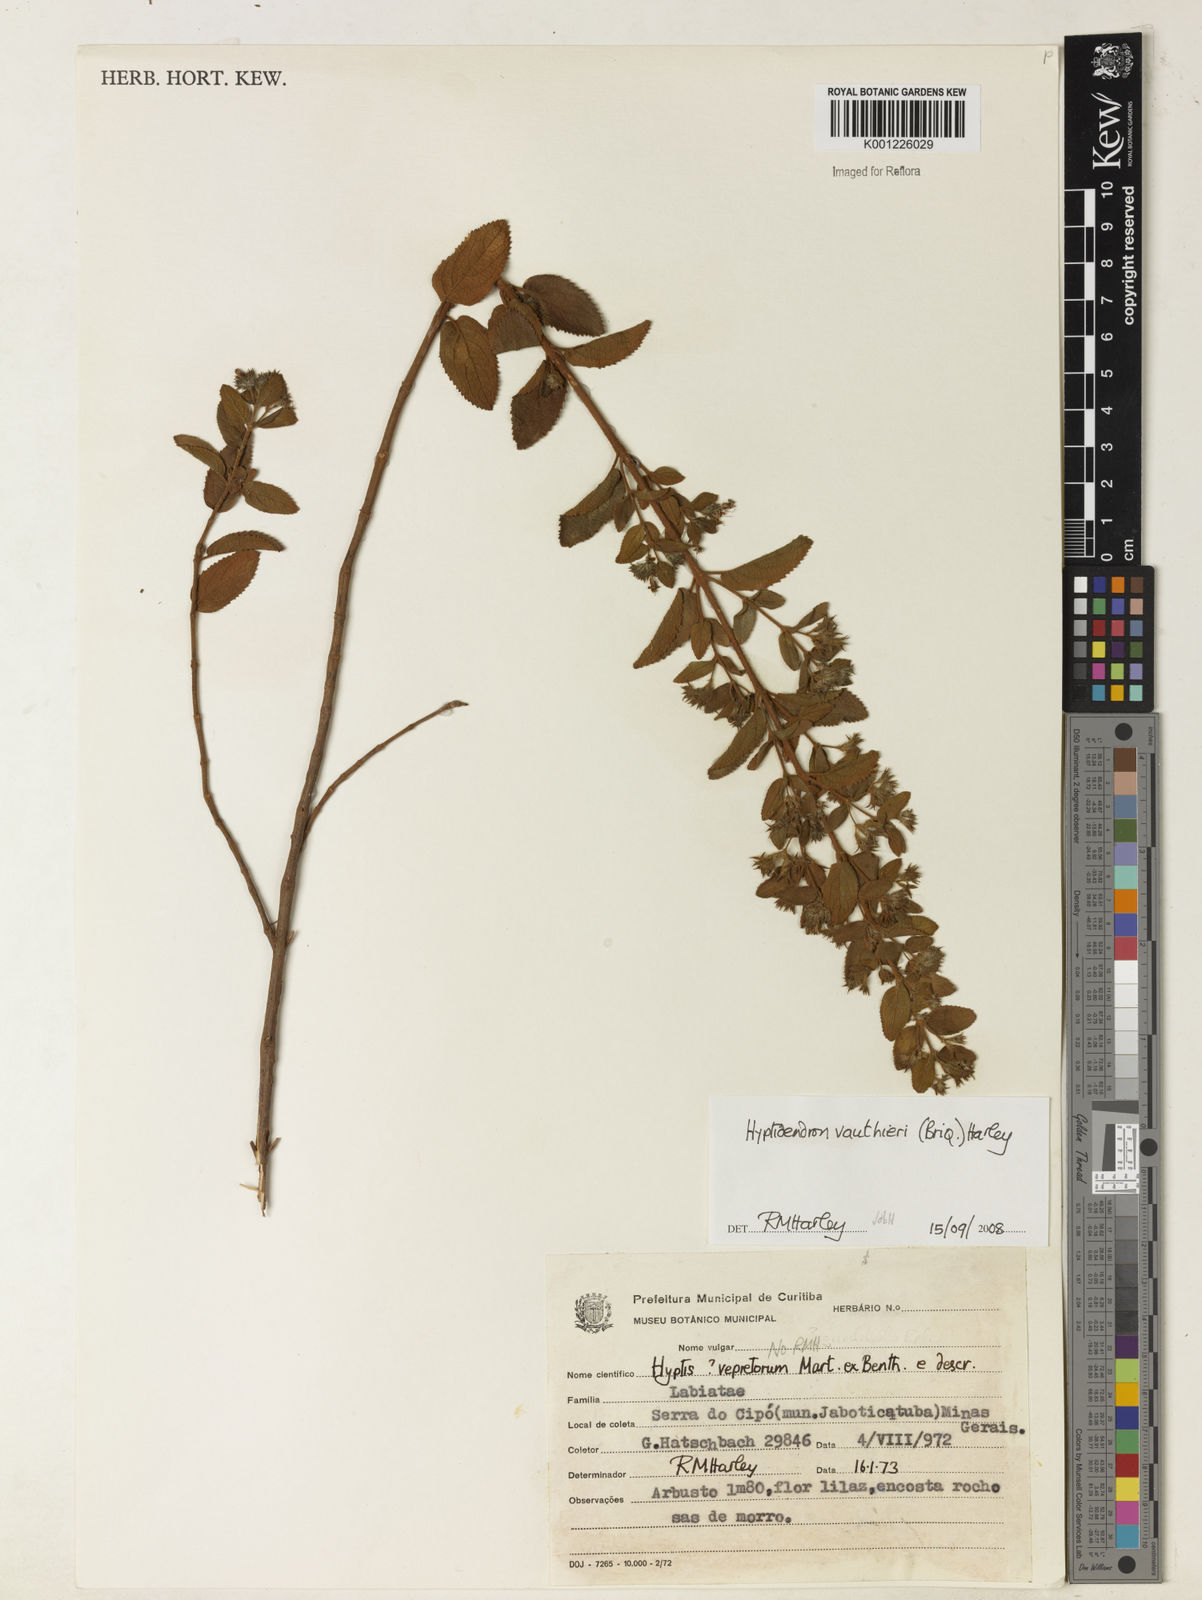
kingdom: Plantae
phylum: Tracheophyta
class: Magnoliopsida
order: Lamiales
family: Lamiaceae
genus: Hyptidendron
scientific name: Hyptidendron vauthieri
